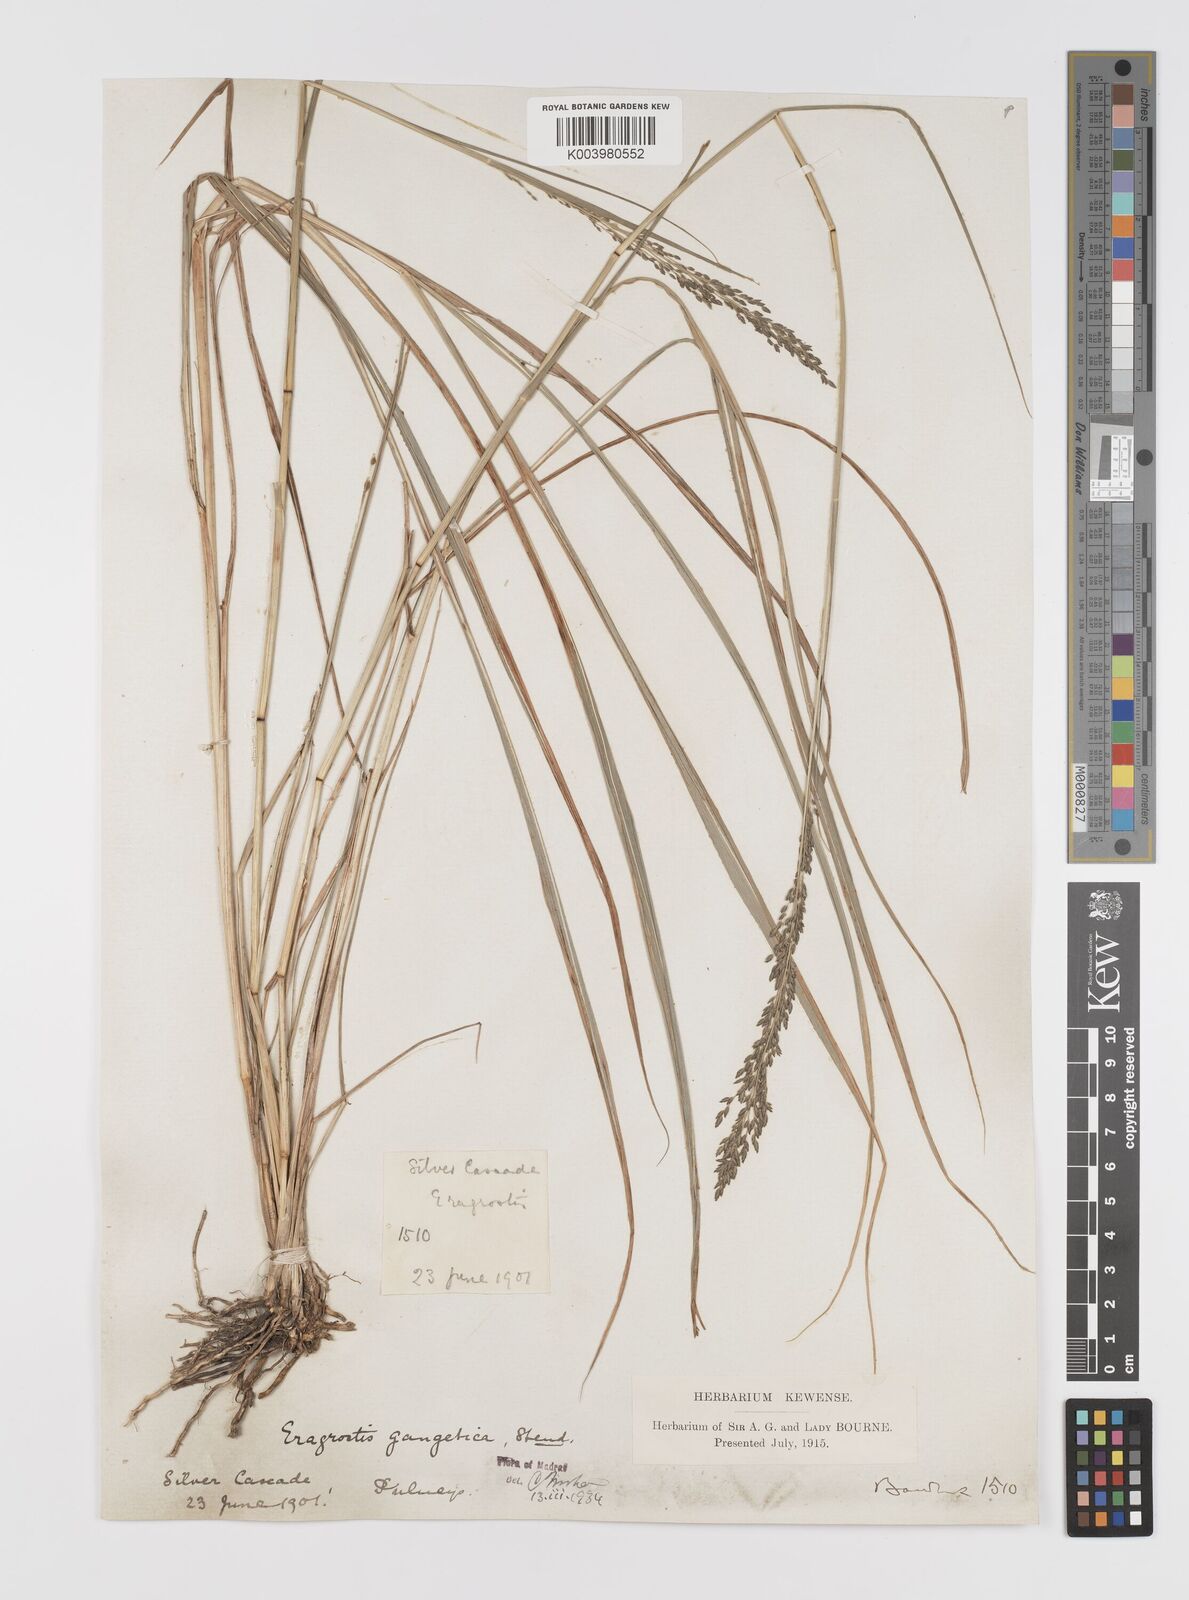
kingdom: Plantae
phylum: Tracheophyta
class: Liliopsida
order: Poales
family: Poaceae
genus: Eragrostis
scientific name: Eragrostis
